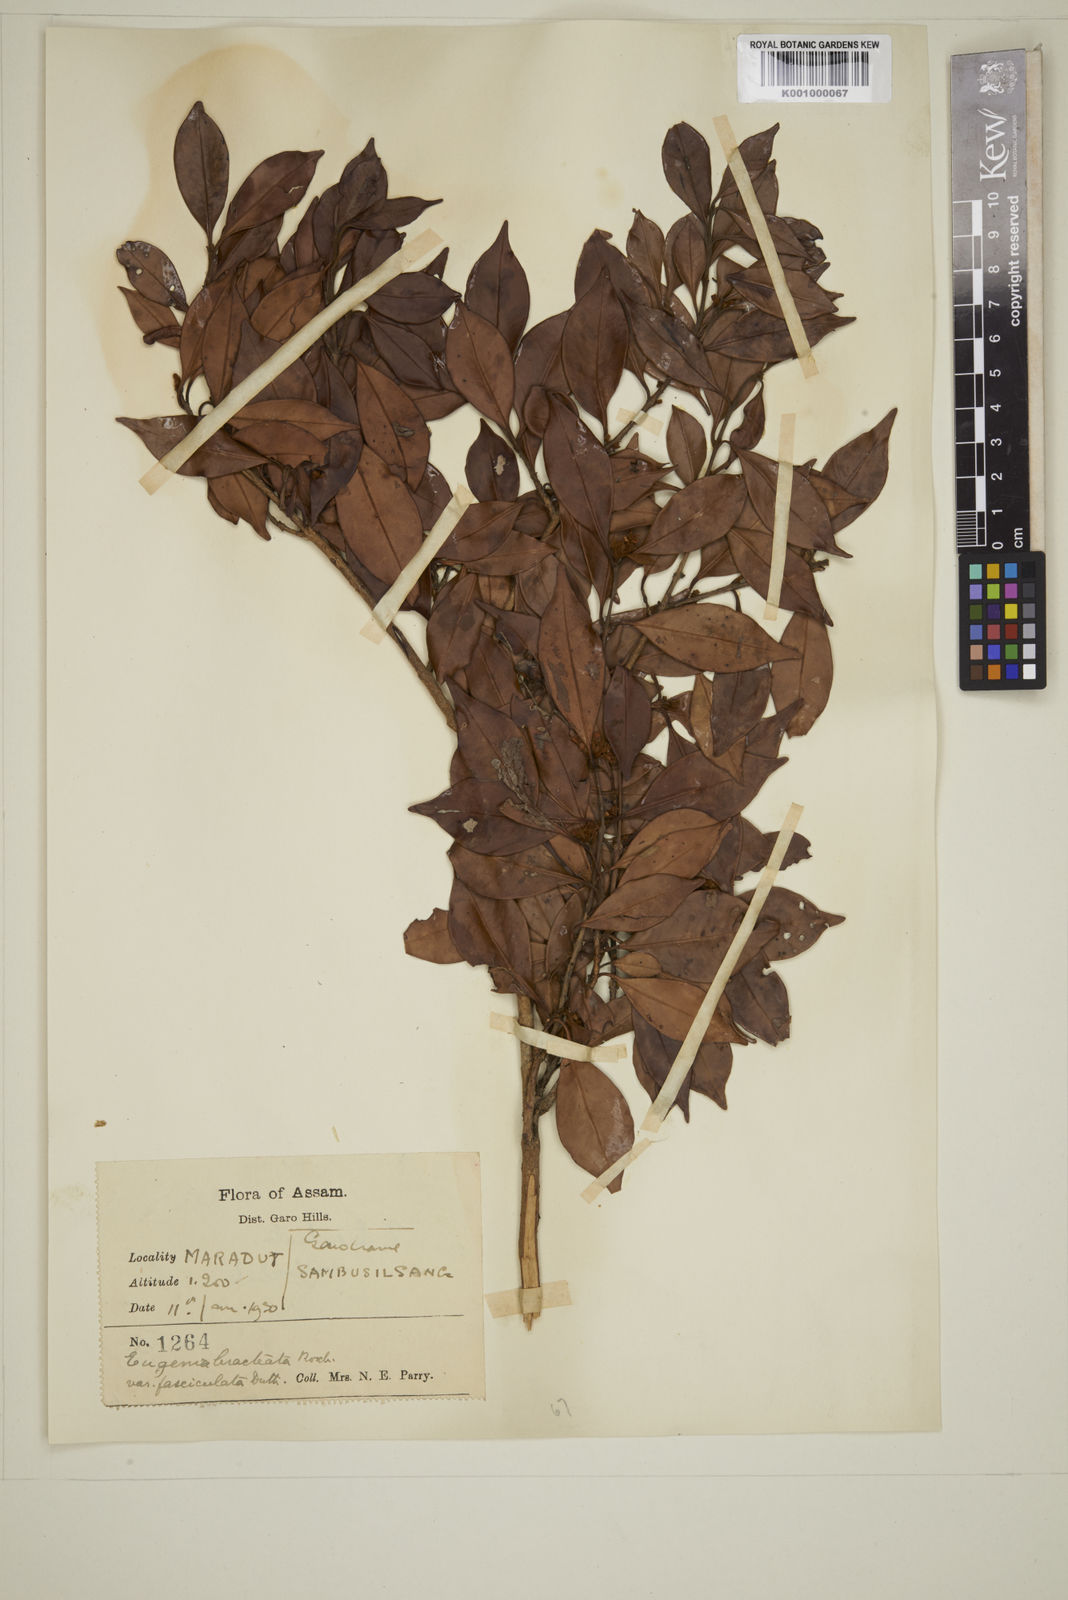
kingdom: Plantae
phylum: Tracheophyta
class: Magnoliopsida
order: Myrtales
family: Myrtaceae
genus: Myrcia
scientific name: Myrcia bracteata
